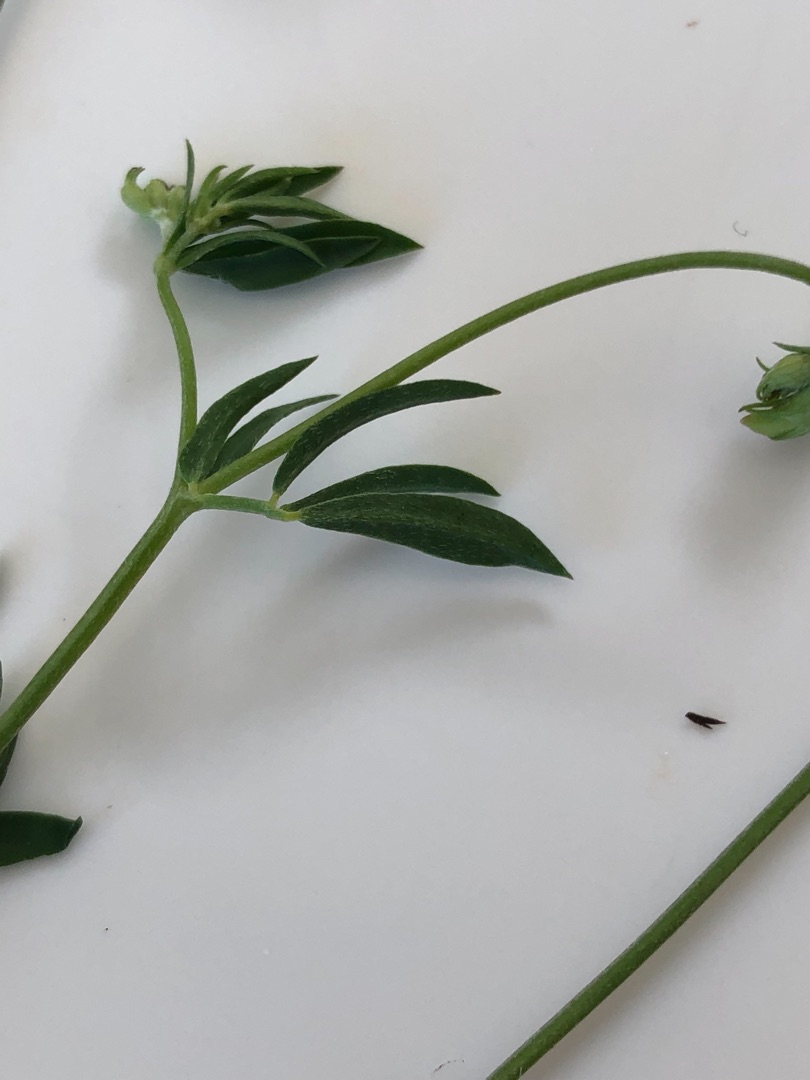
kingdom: Plantae
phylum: Tracheophyta
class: Magnoliopsida
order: Fabales
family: Fabaceae
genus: Lotus
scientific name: Lotus tenuis
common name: Smalbladet kællingetand
